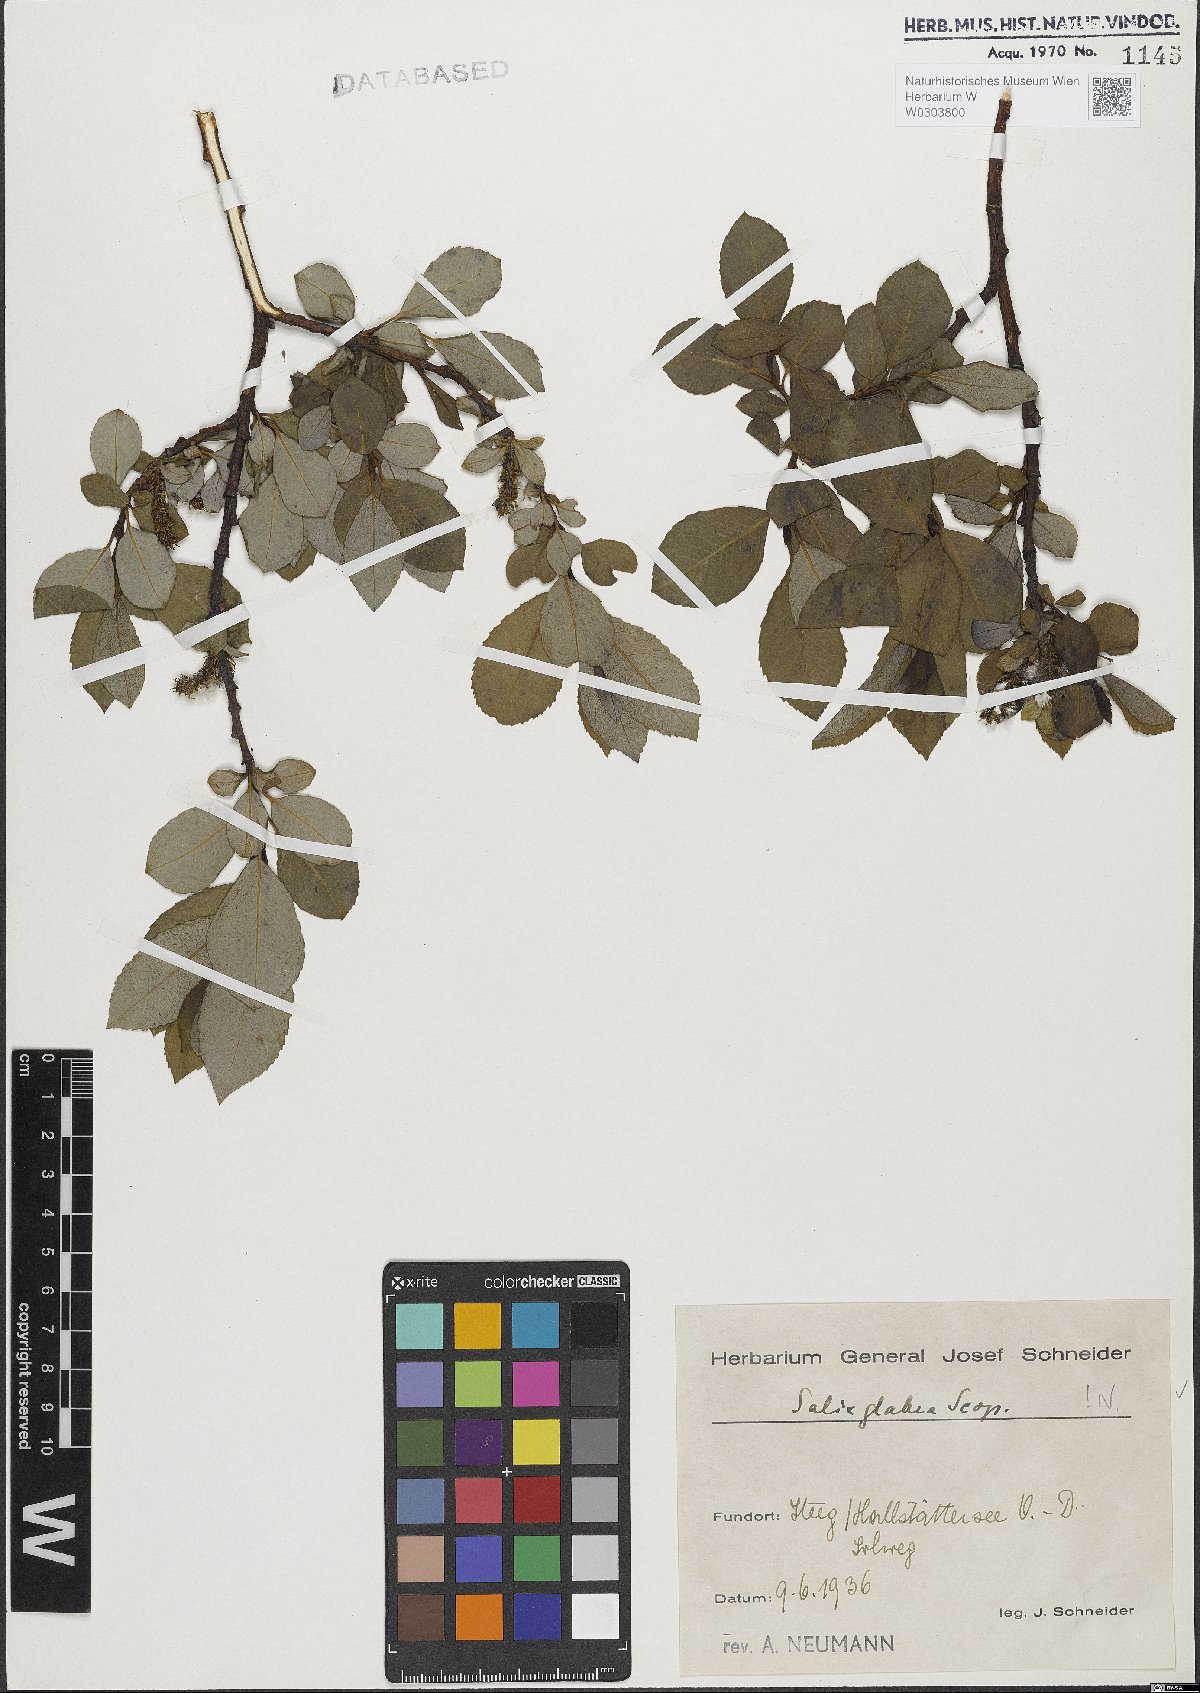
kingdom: Plantae
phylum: Tracheophyta
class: Magnoliopsida
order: Malpighiales
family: Salicaceae
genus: Salix
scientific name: Salix glabra
